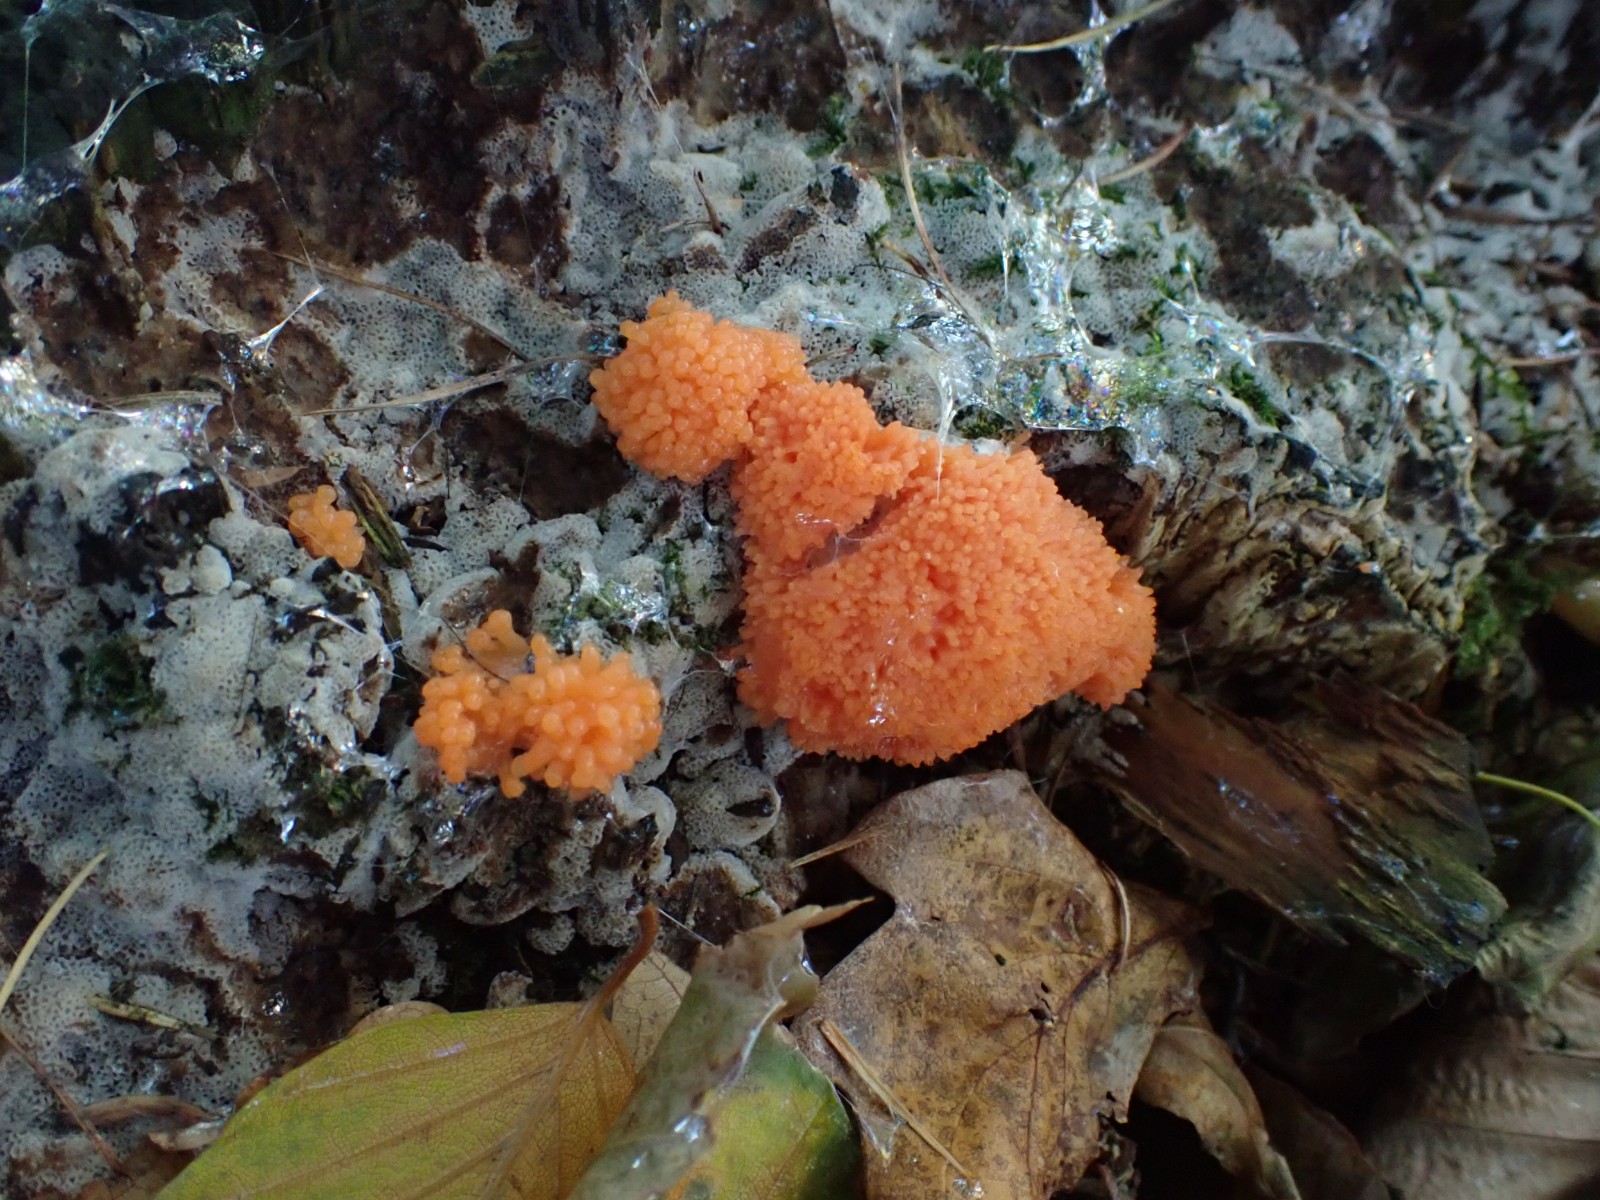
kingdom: Protozoa
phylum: Mycetozoa
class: Myxomycetes
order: Cribrariales
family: Tubiferaceae
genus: Tubifera
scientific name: Tubifera ferruginosa
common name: kanel-støvrør
